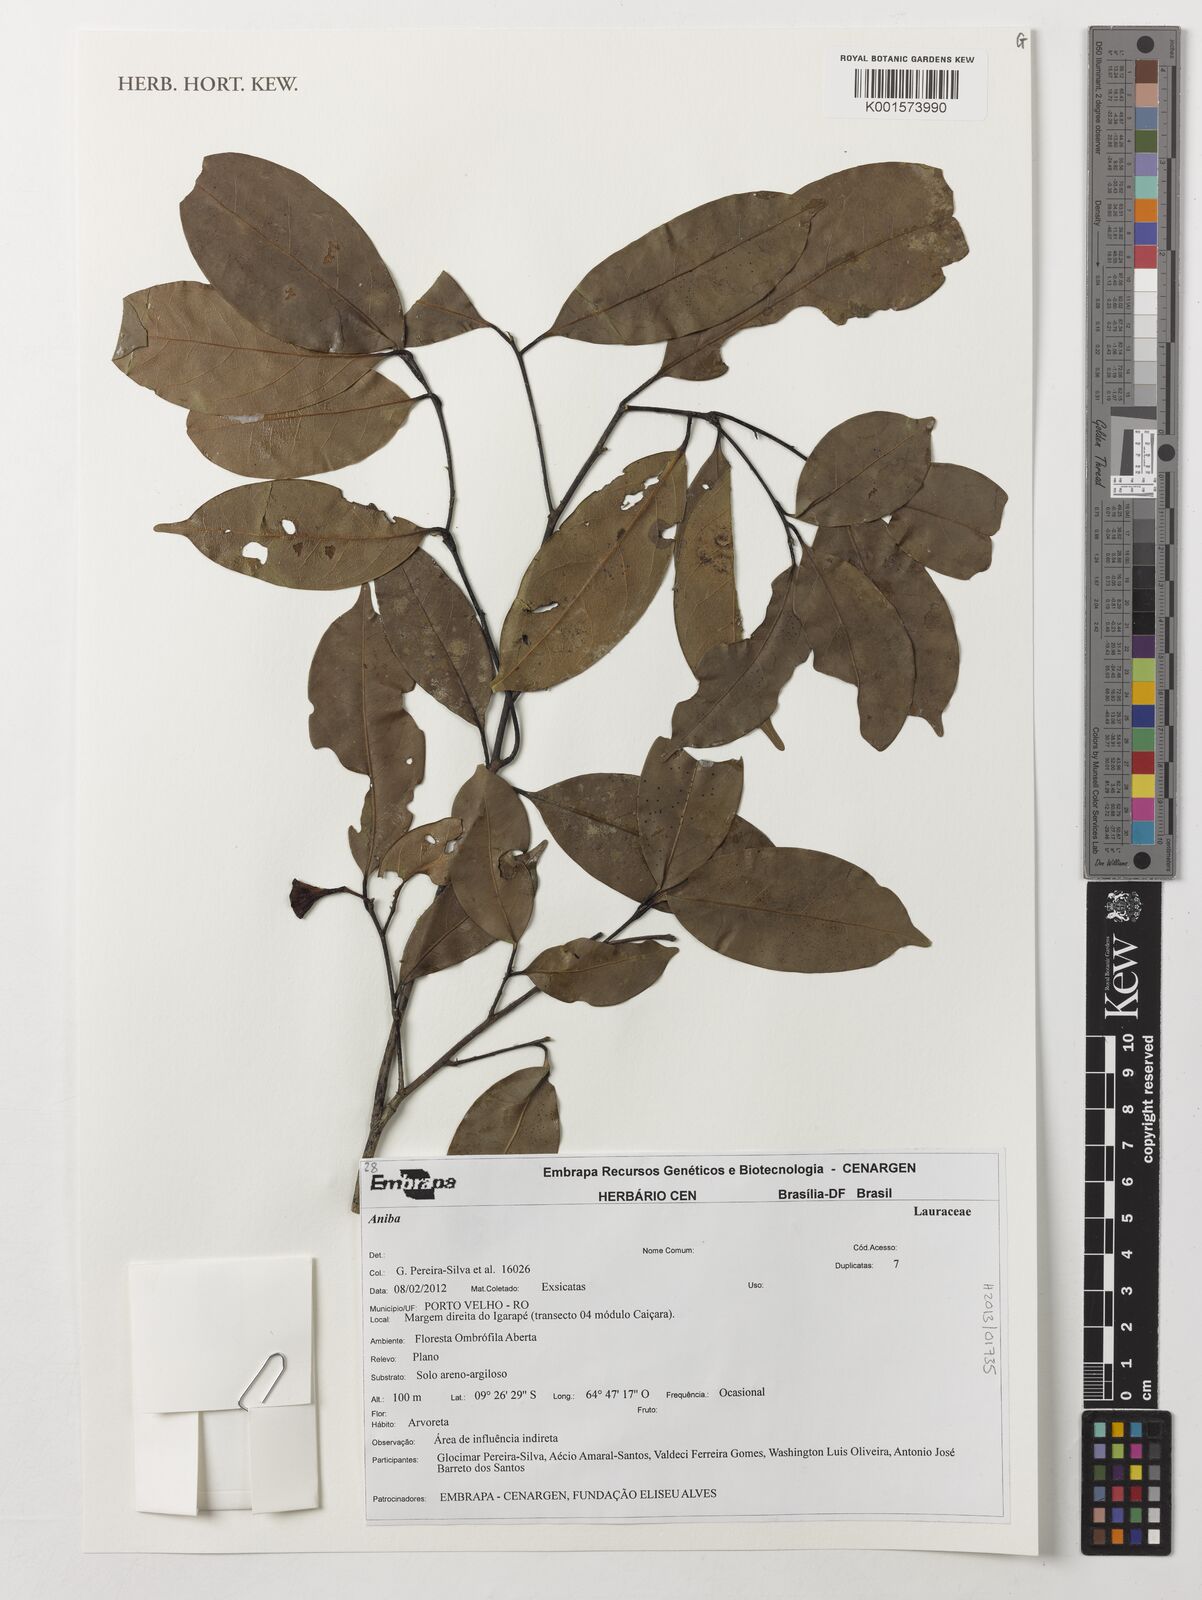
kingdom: Plantae
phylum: Tracheophyta
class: Magnoliopsida
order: Laurales
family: Lauraceae
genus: Aniba
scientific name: Aniba
